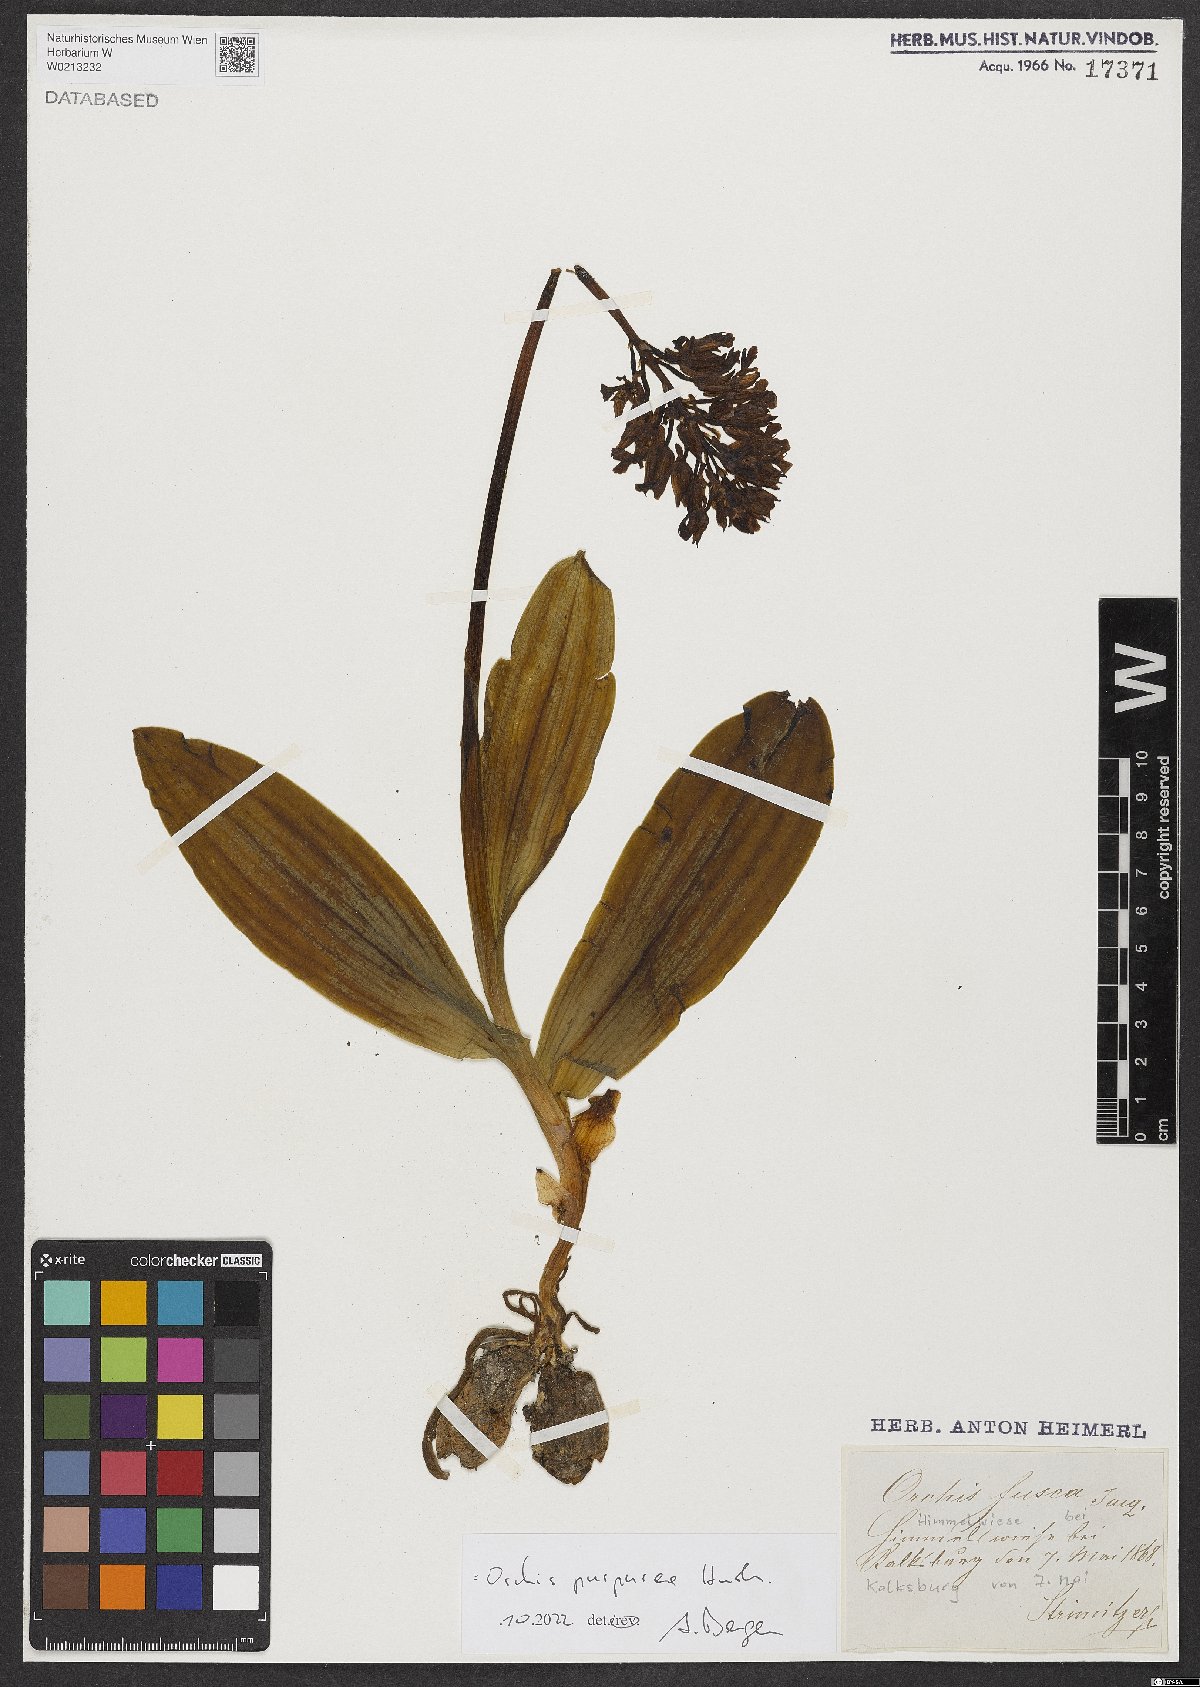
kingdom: Plantae
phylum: Tracheophyta
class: Liliopsida
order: Asparagales
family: Orchidaceae
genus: Orchis
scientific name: Orchis purpurea
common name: Lady orchid
